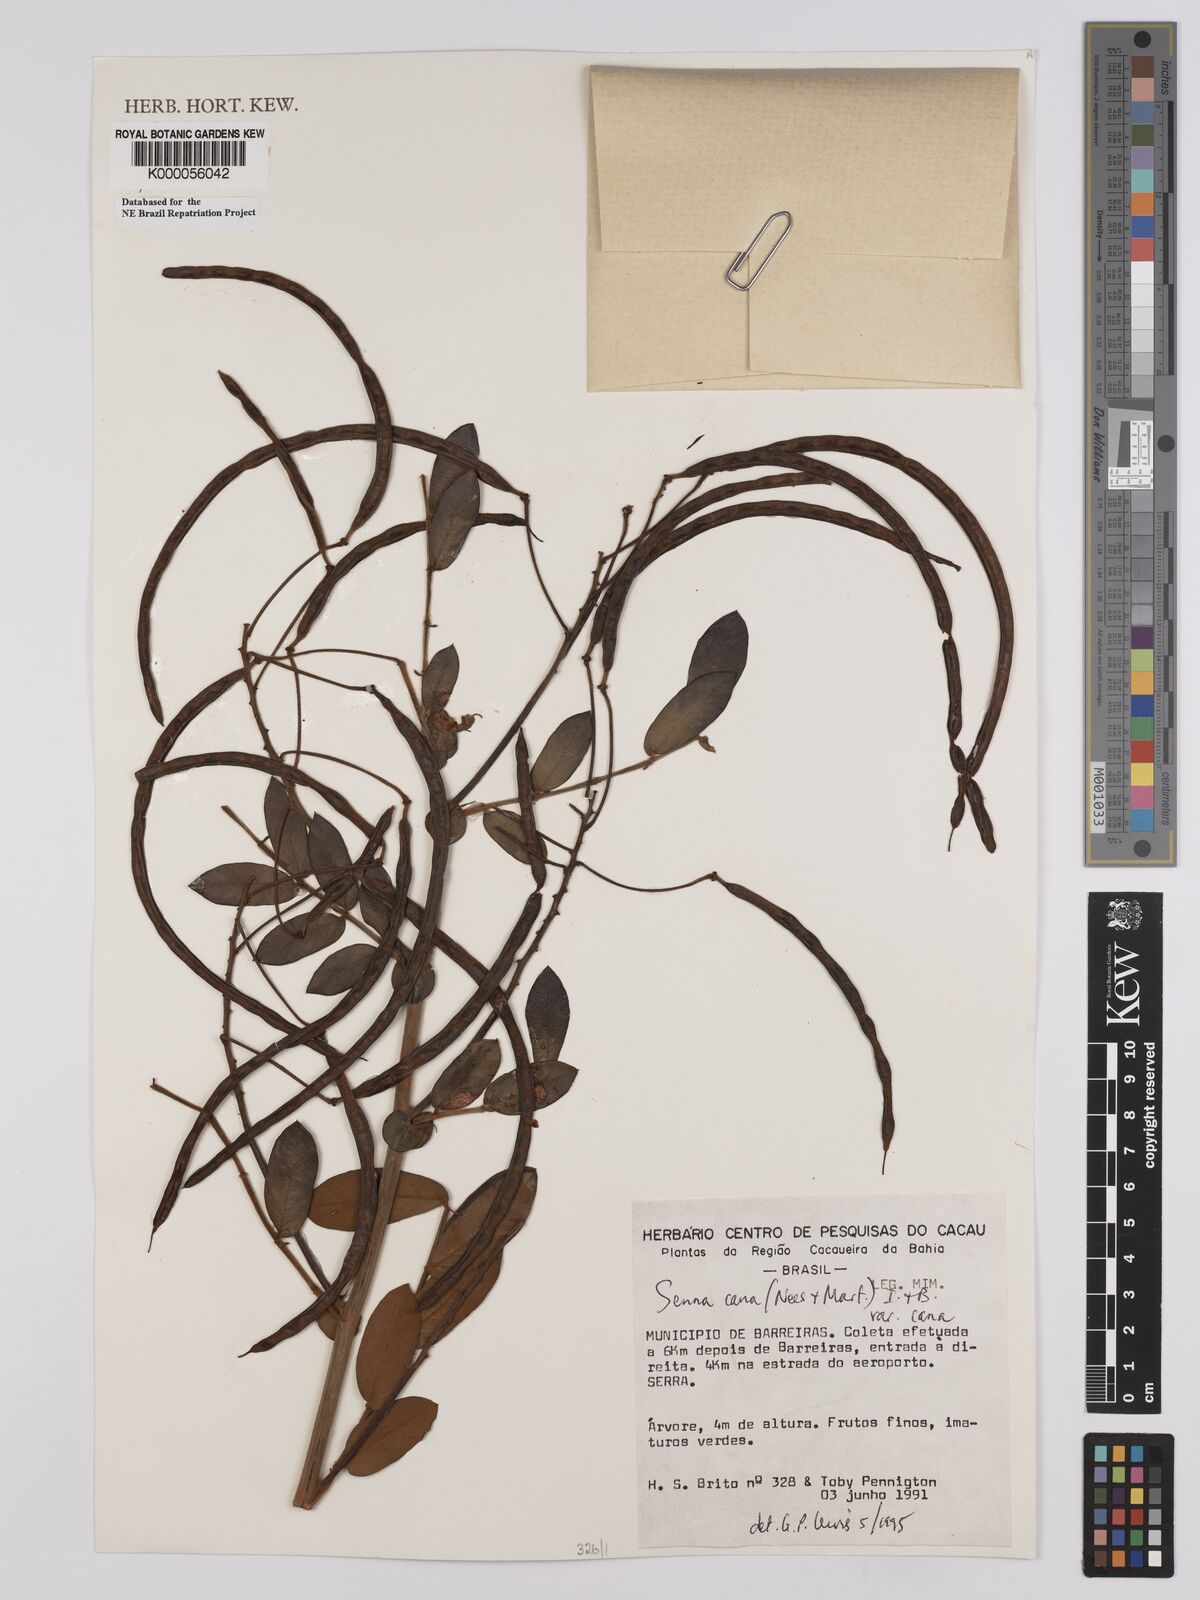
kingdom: Plantae
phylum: Tracheophyta
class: Magnoliopsida
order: Fabales
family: Fabaceae
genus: Senna
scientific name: Senna cana
